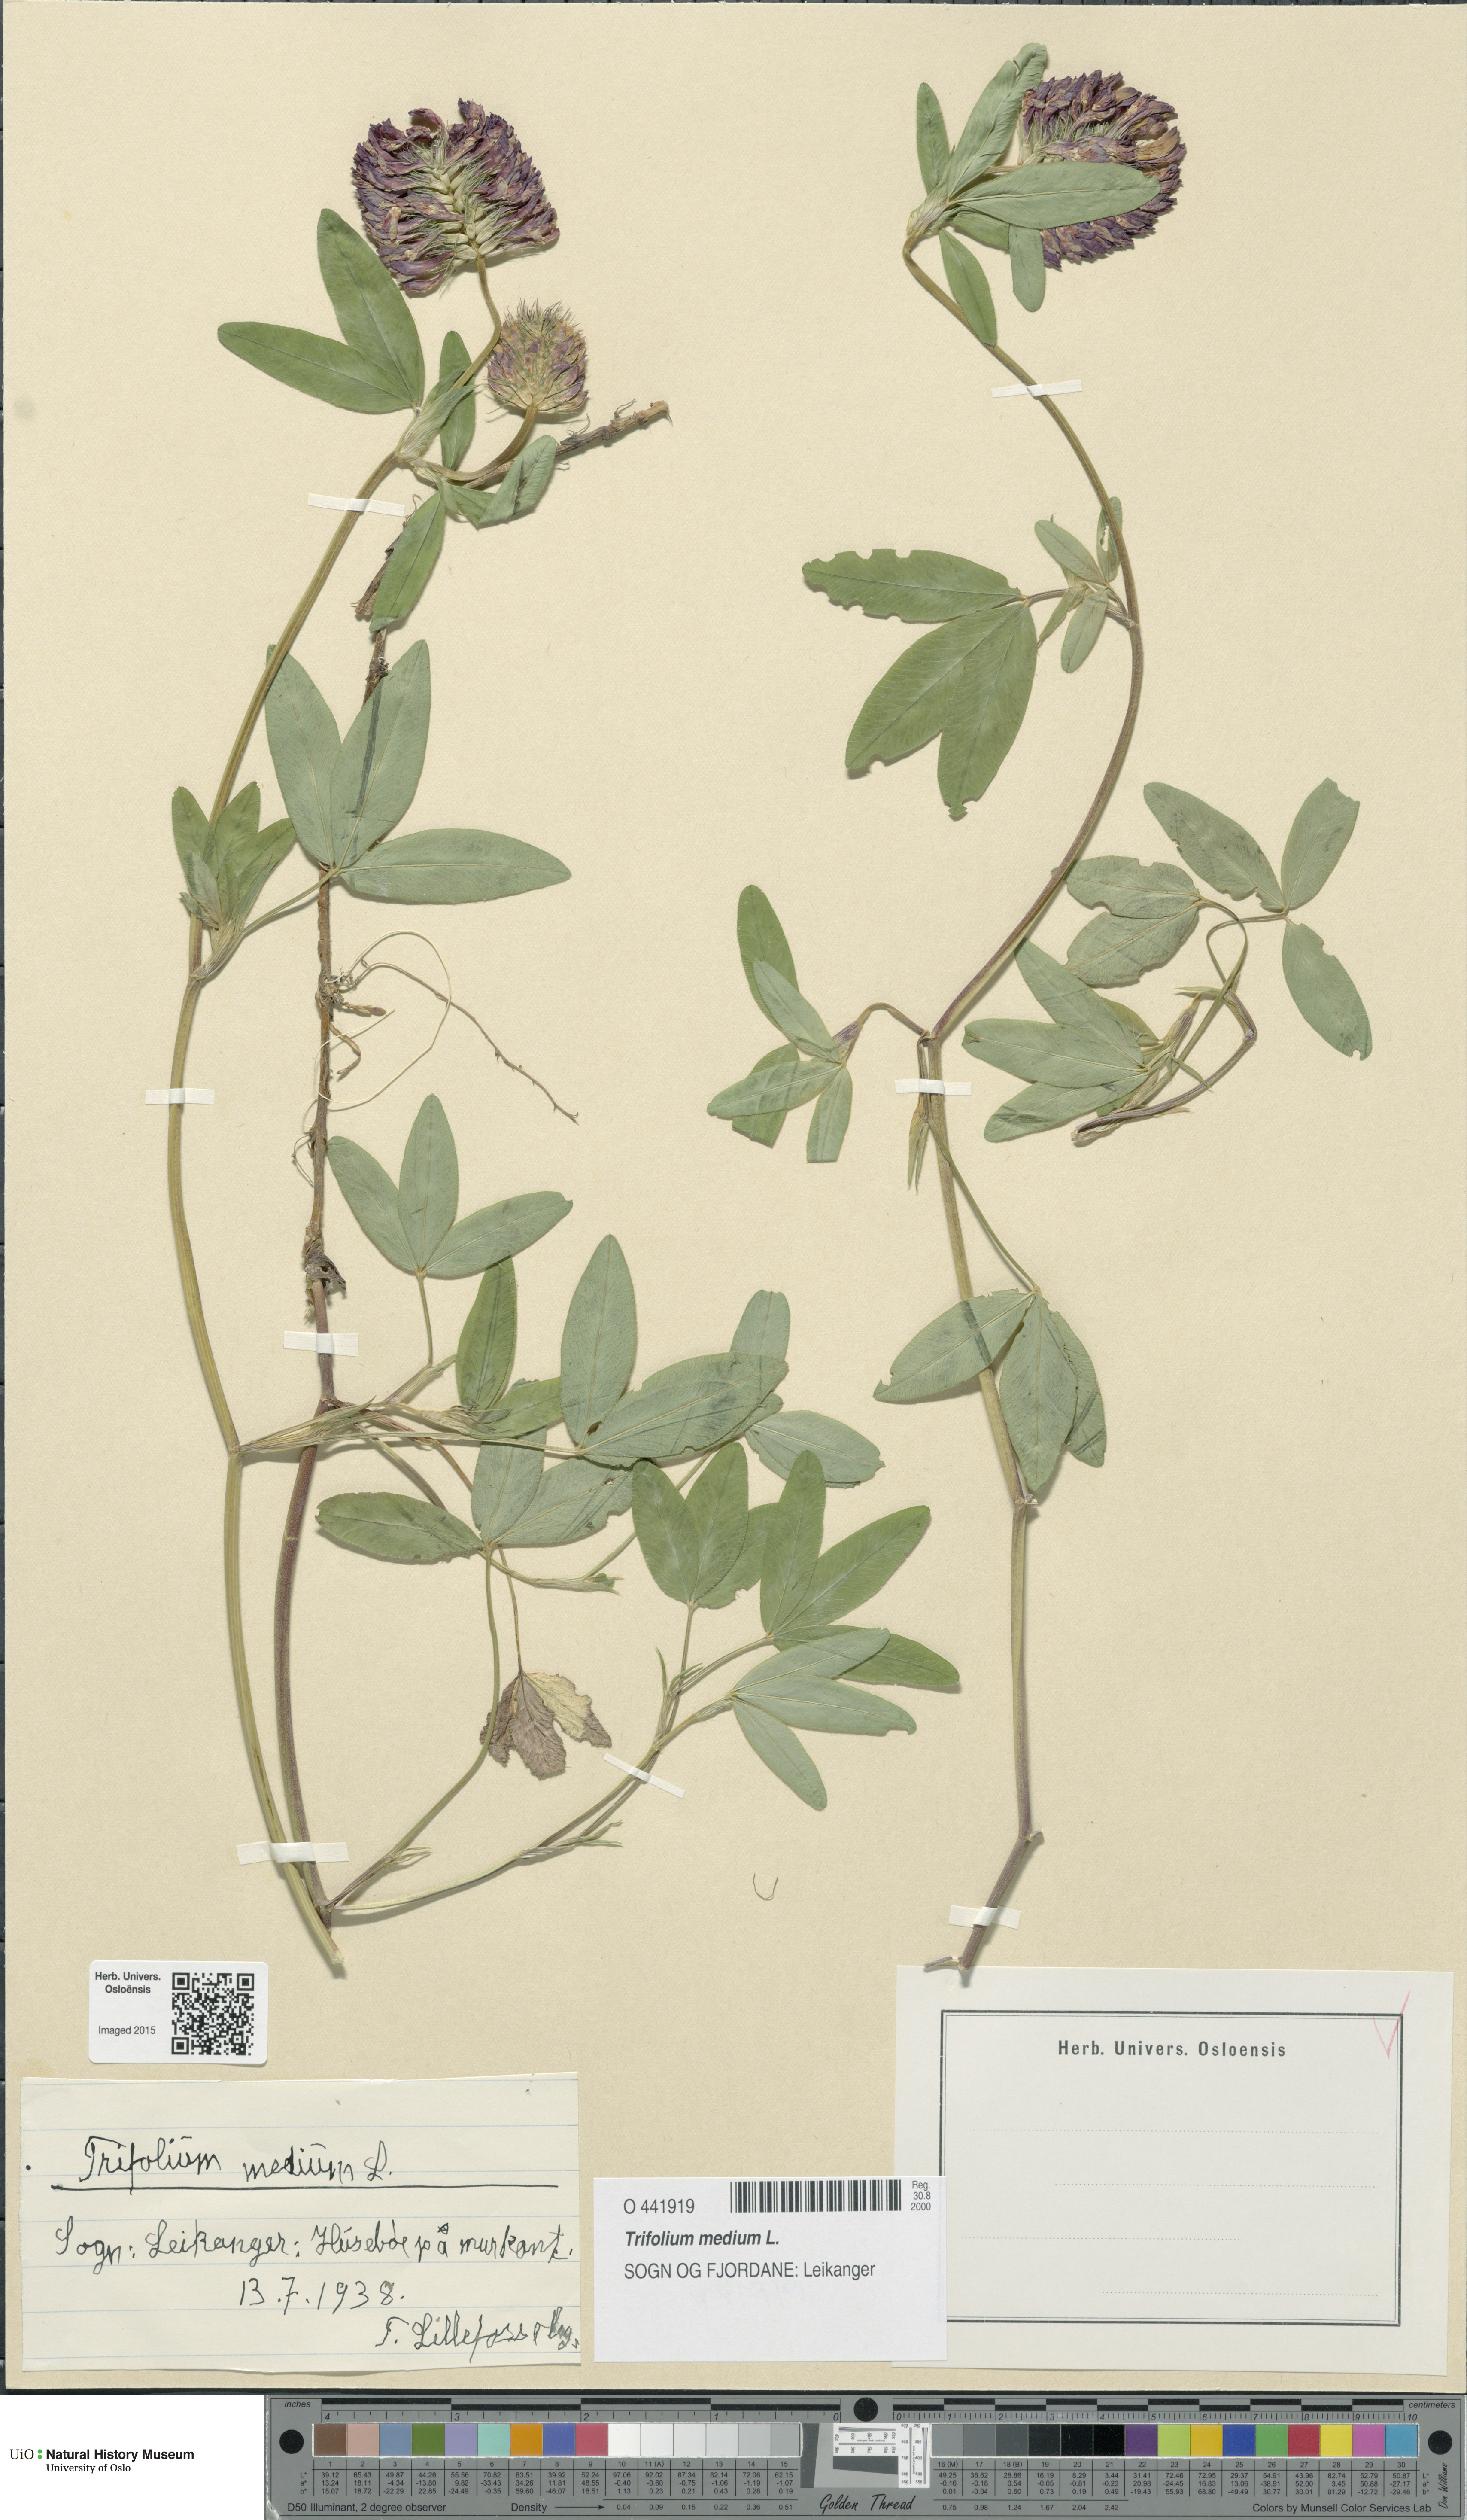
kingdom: Plantae
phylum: Tracheophyta
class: Magnoliopsida
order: Fabales
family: Fabaceae
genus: Trifolium
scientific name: Trifolium medium
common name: Zigzag clover
